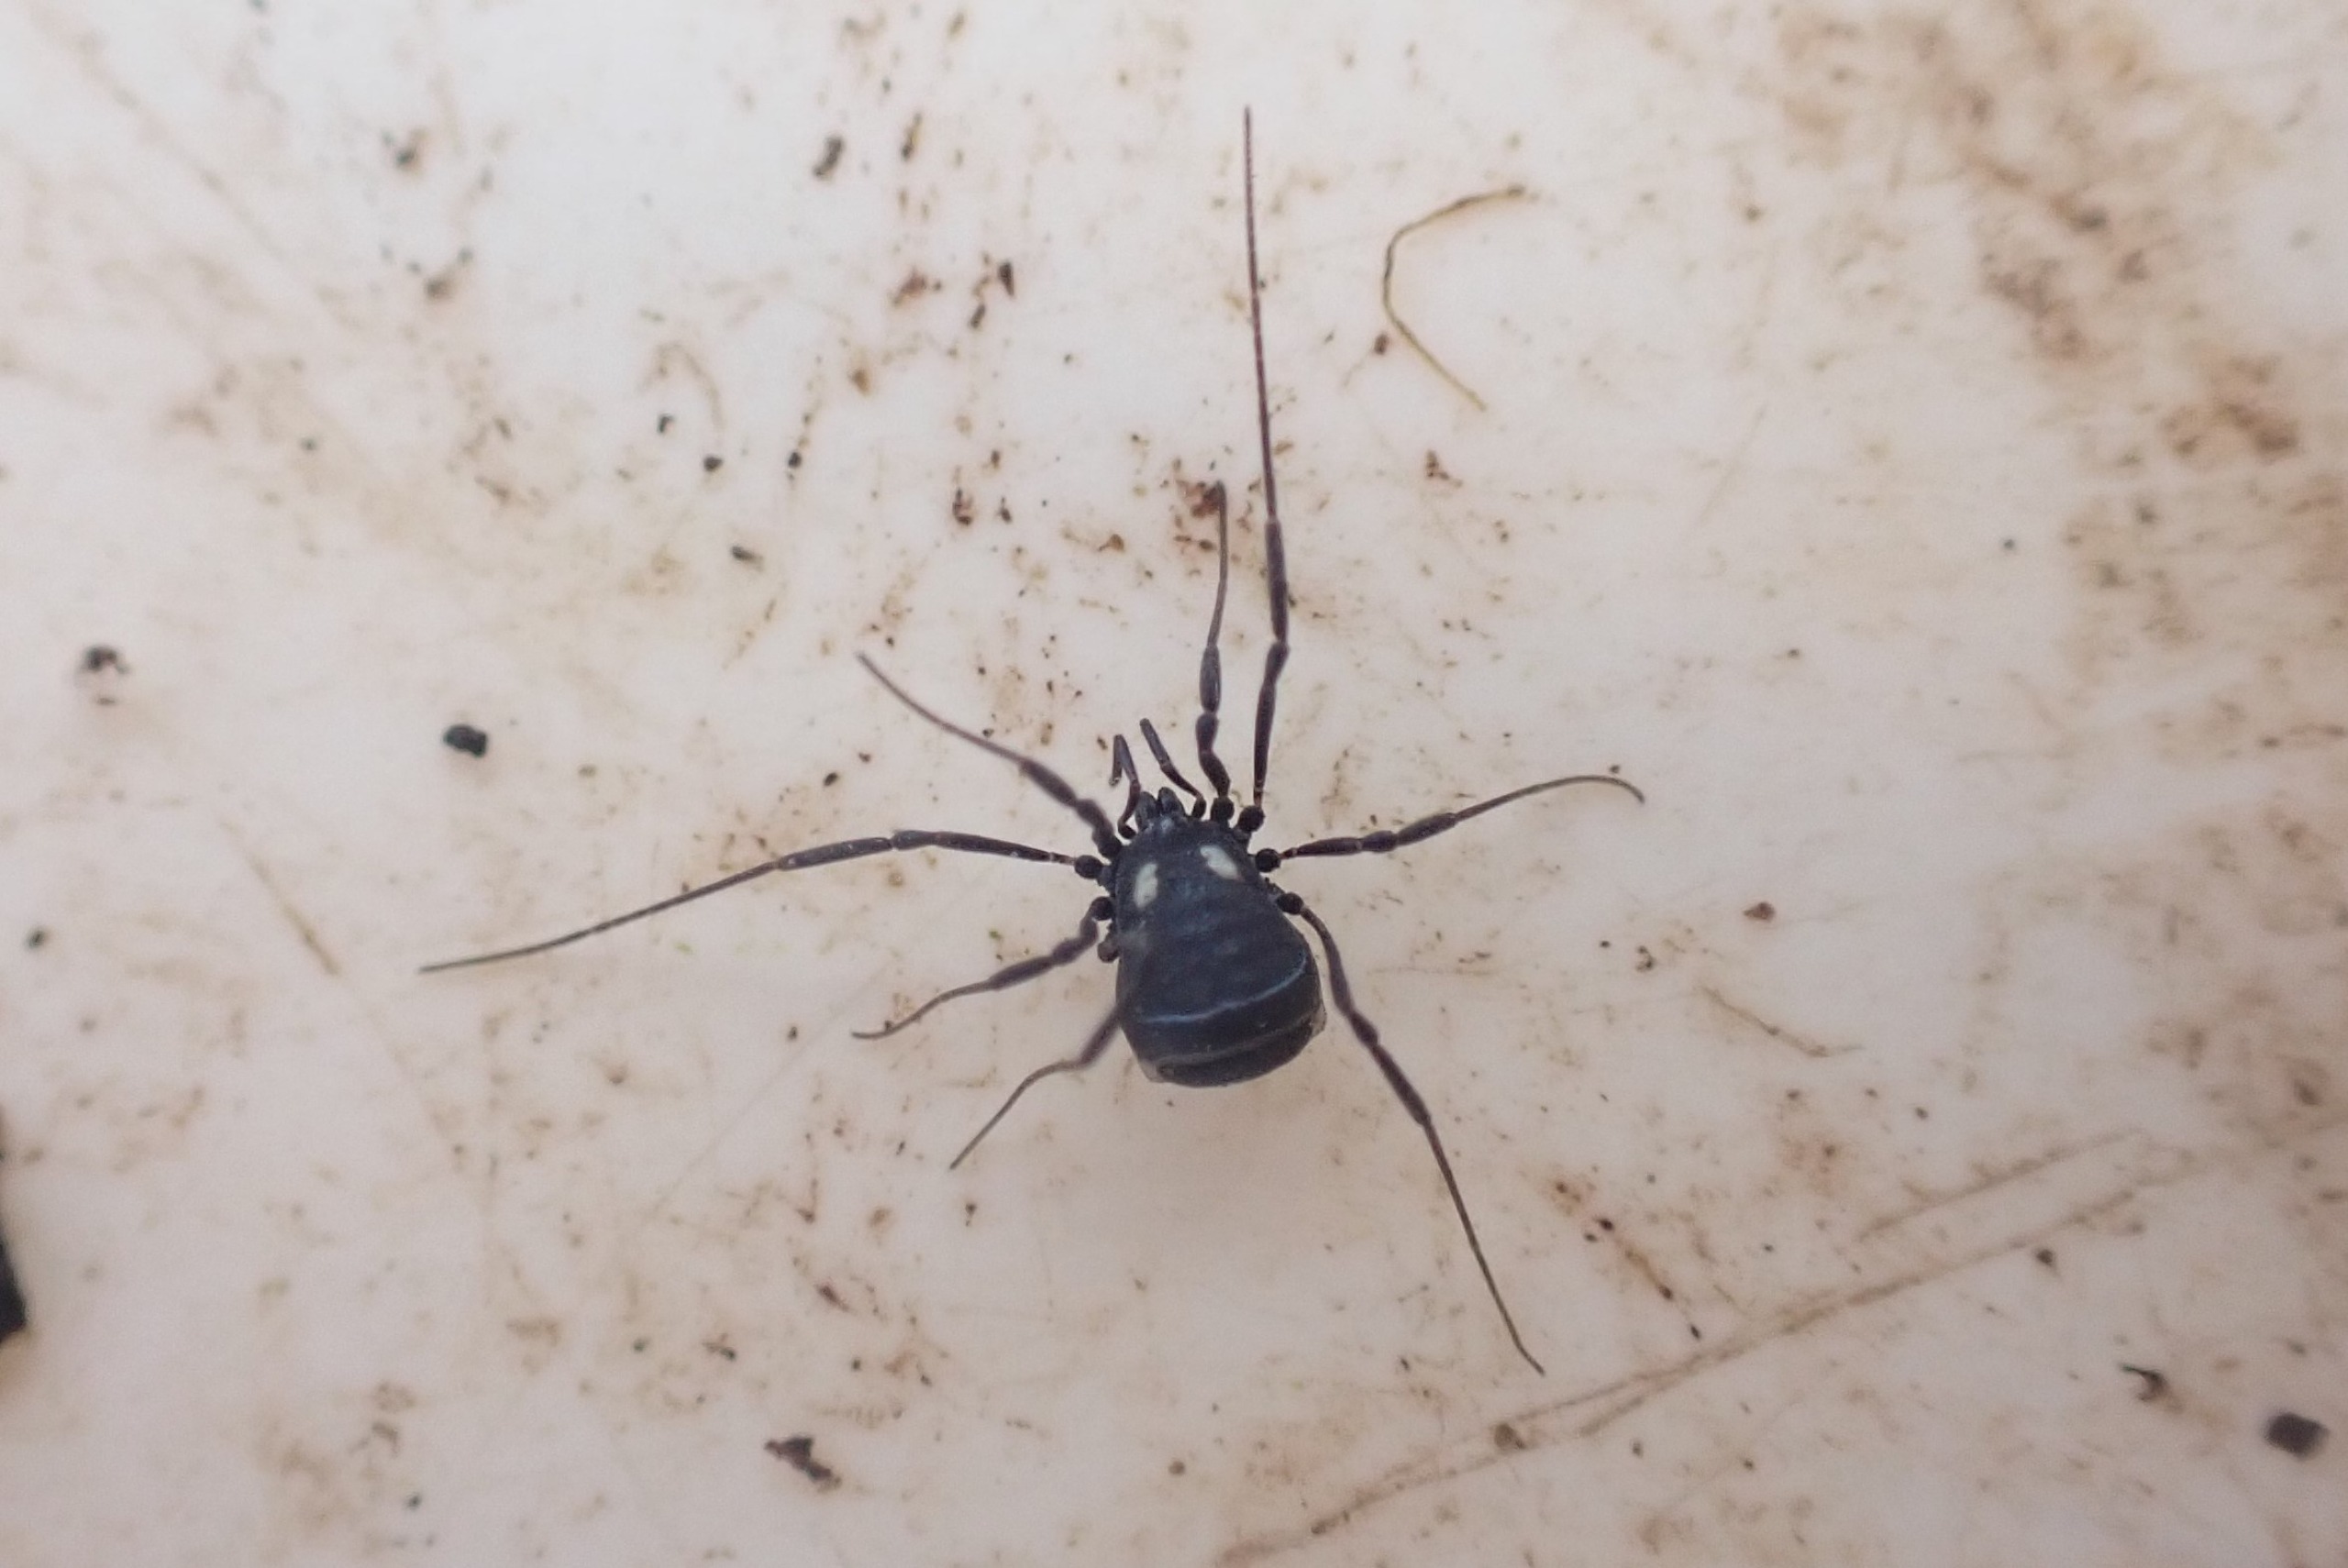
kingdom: Animalia
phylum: Arthropoda
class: Arachnida
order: Opiliones
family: Nemastomatidae
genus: Nemastoma
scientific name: Nemastoma lugubre
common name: Østlig dødningehovedmejer
